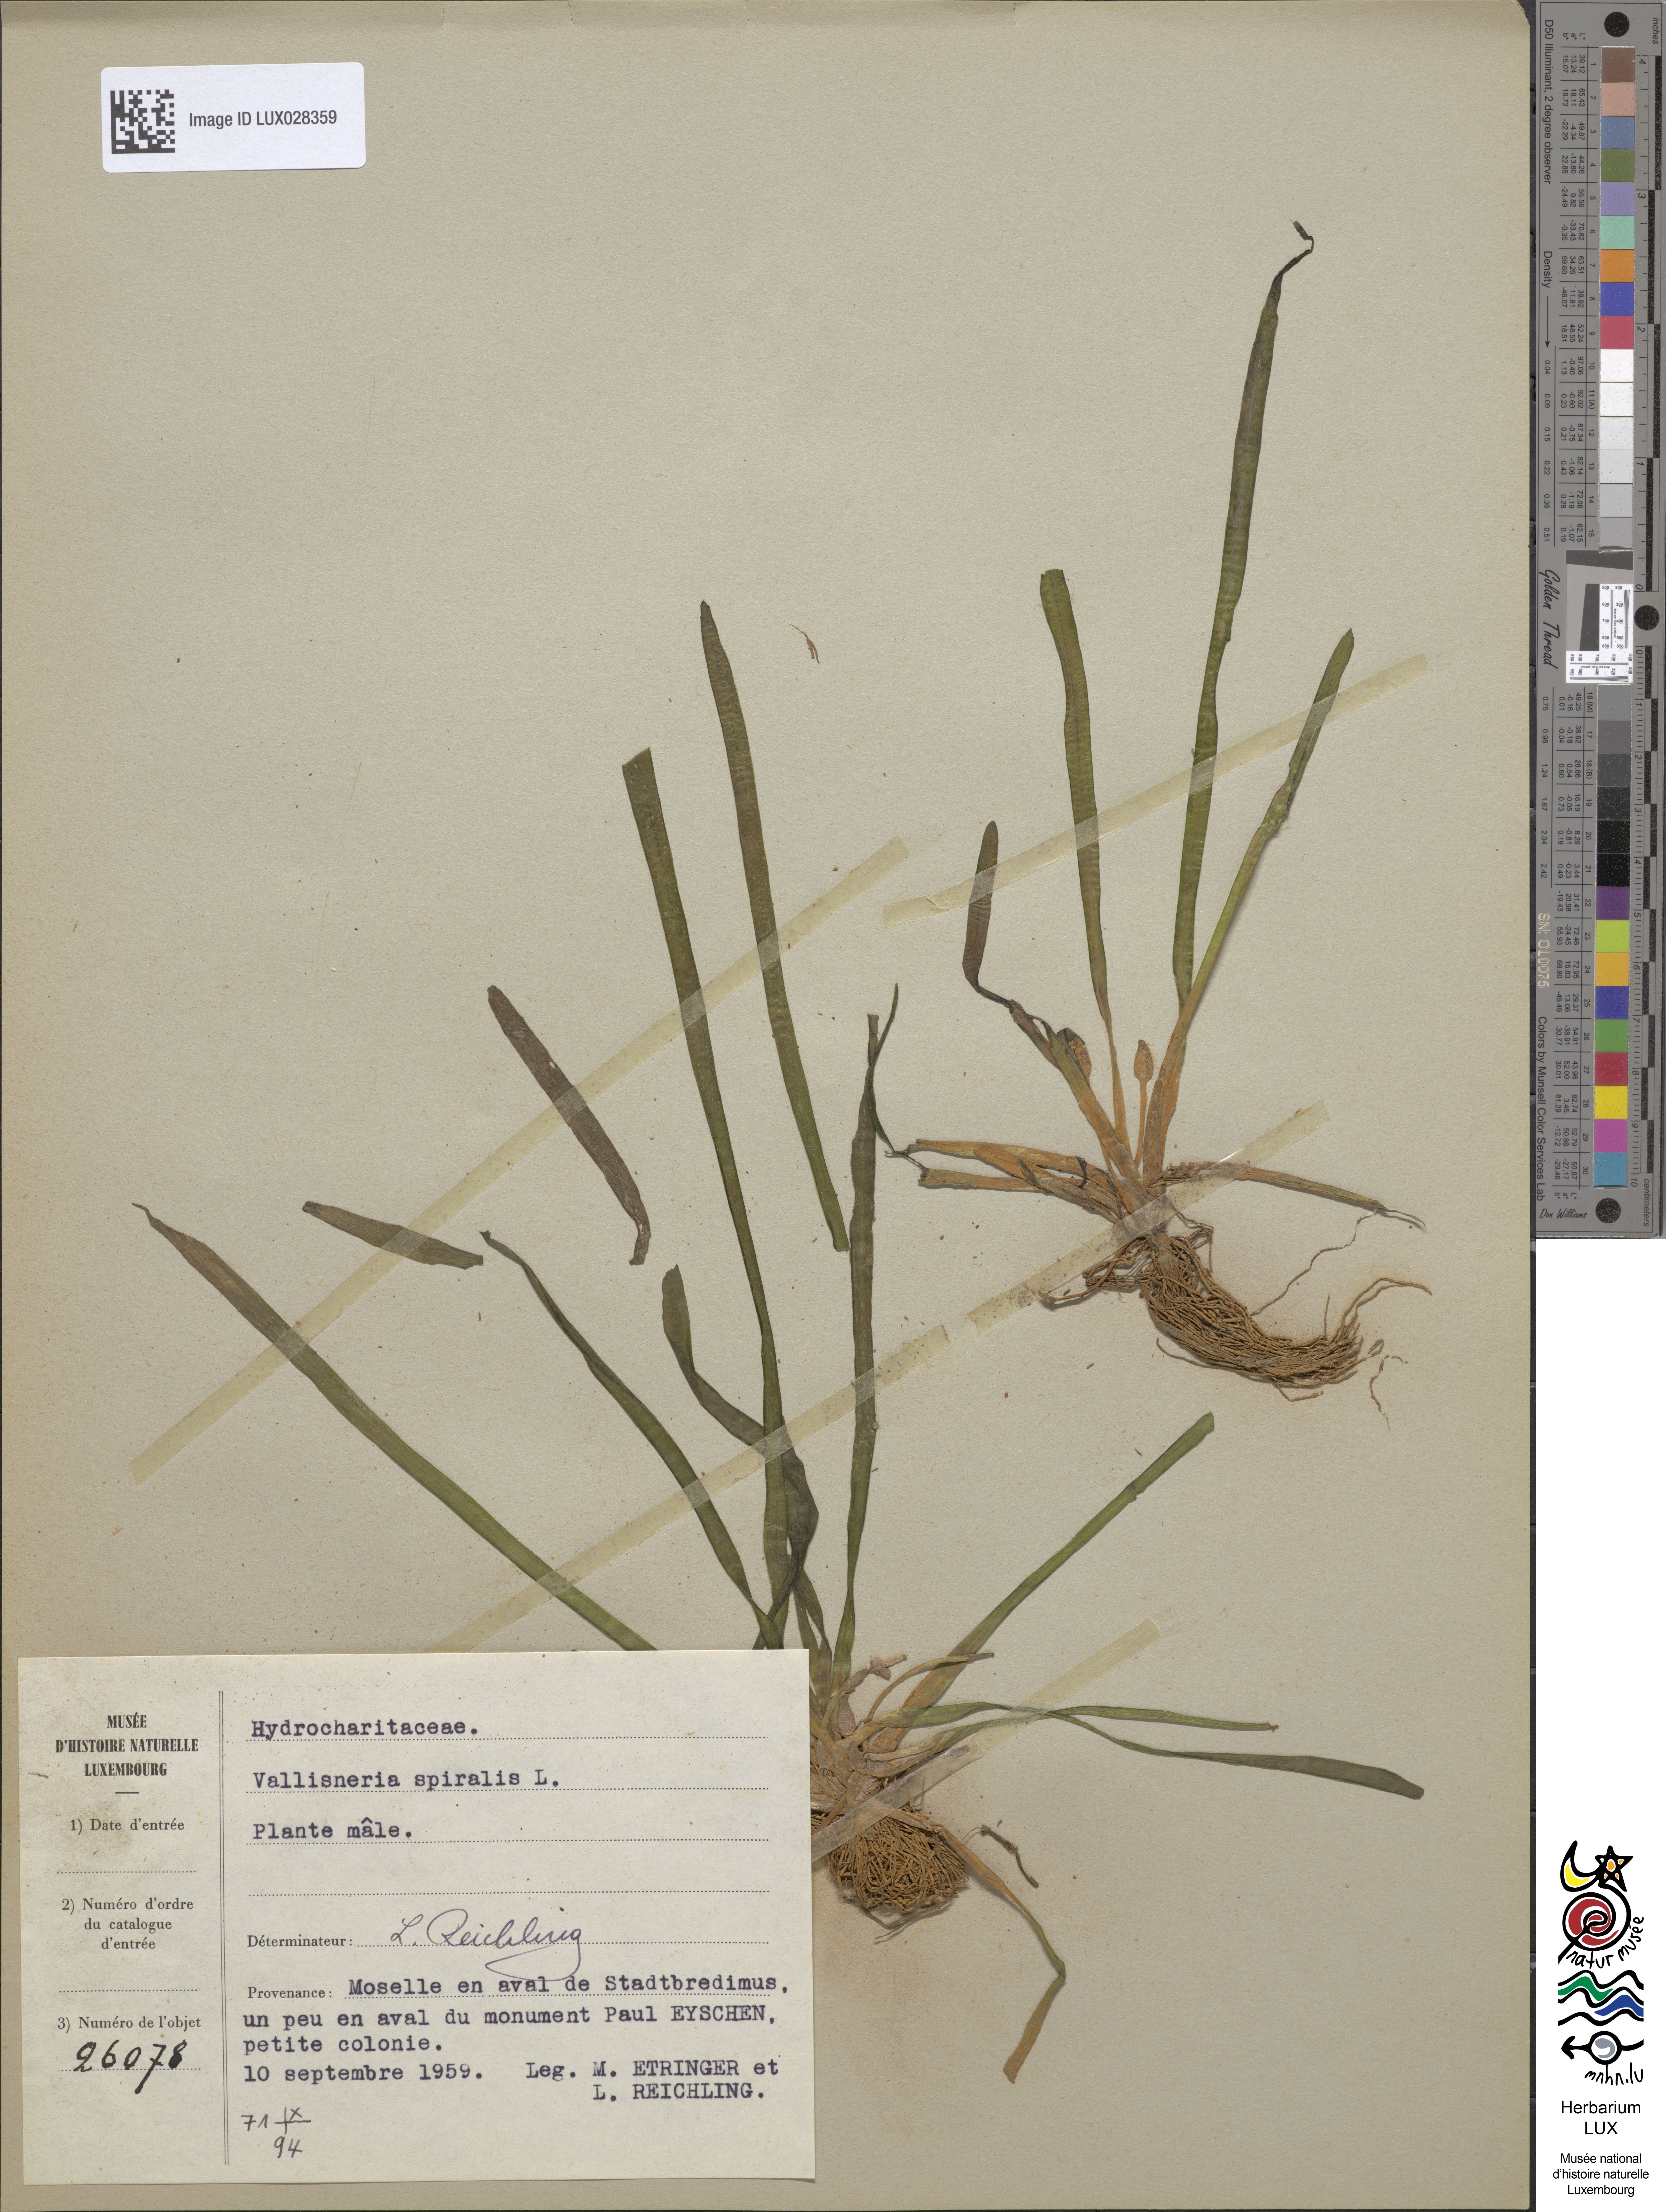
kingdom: Plantae
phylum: Tracheophyta
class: Liliopsida
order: Alismatales
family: Hydrocharitaceae
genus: Vallisneria
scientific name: Vallisneria spiralis
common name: Tapegrass
